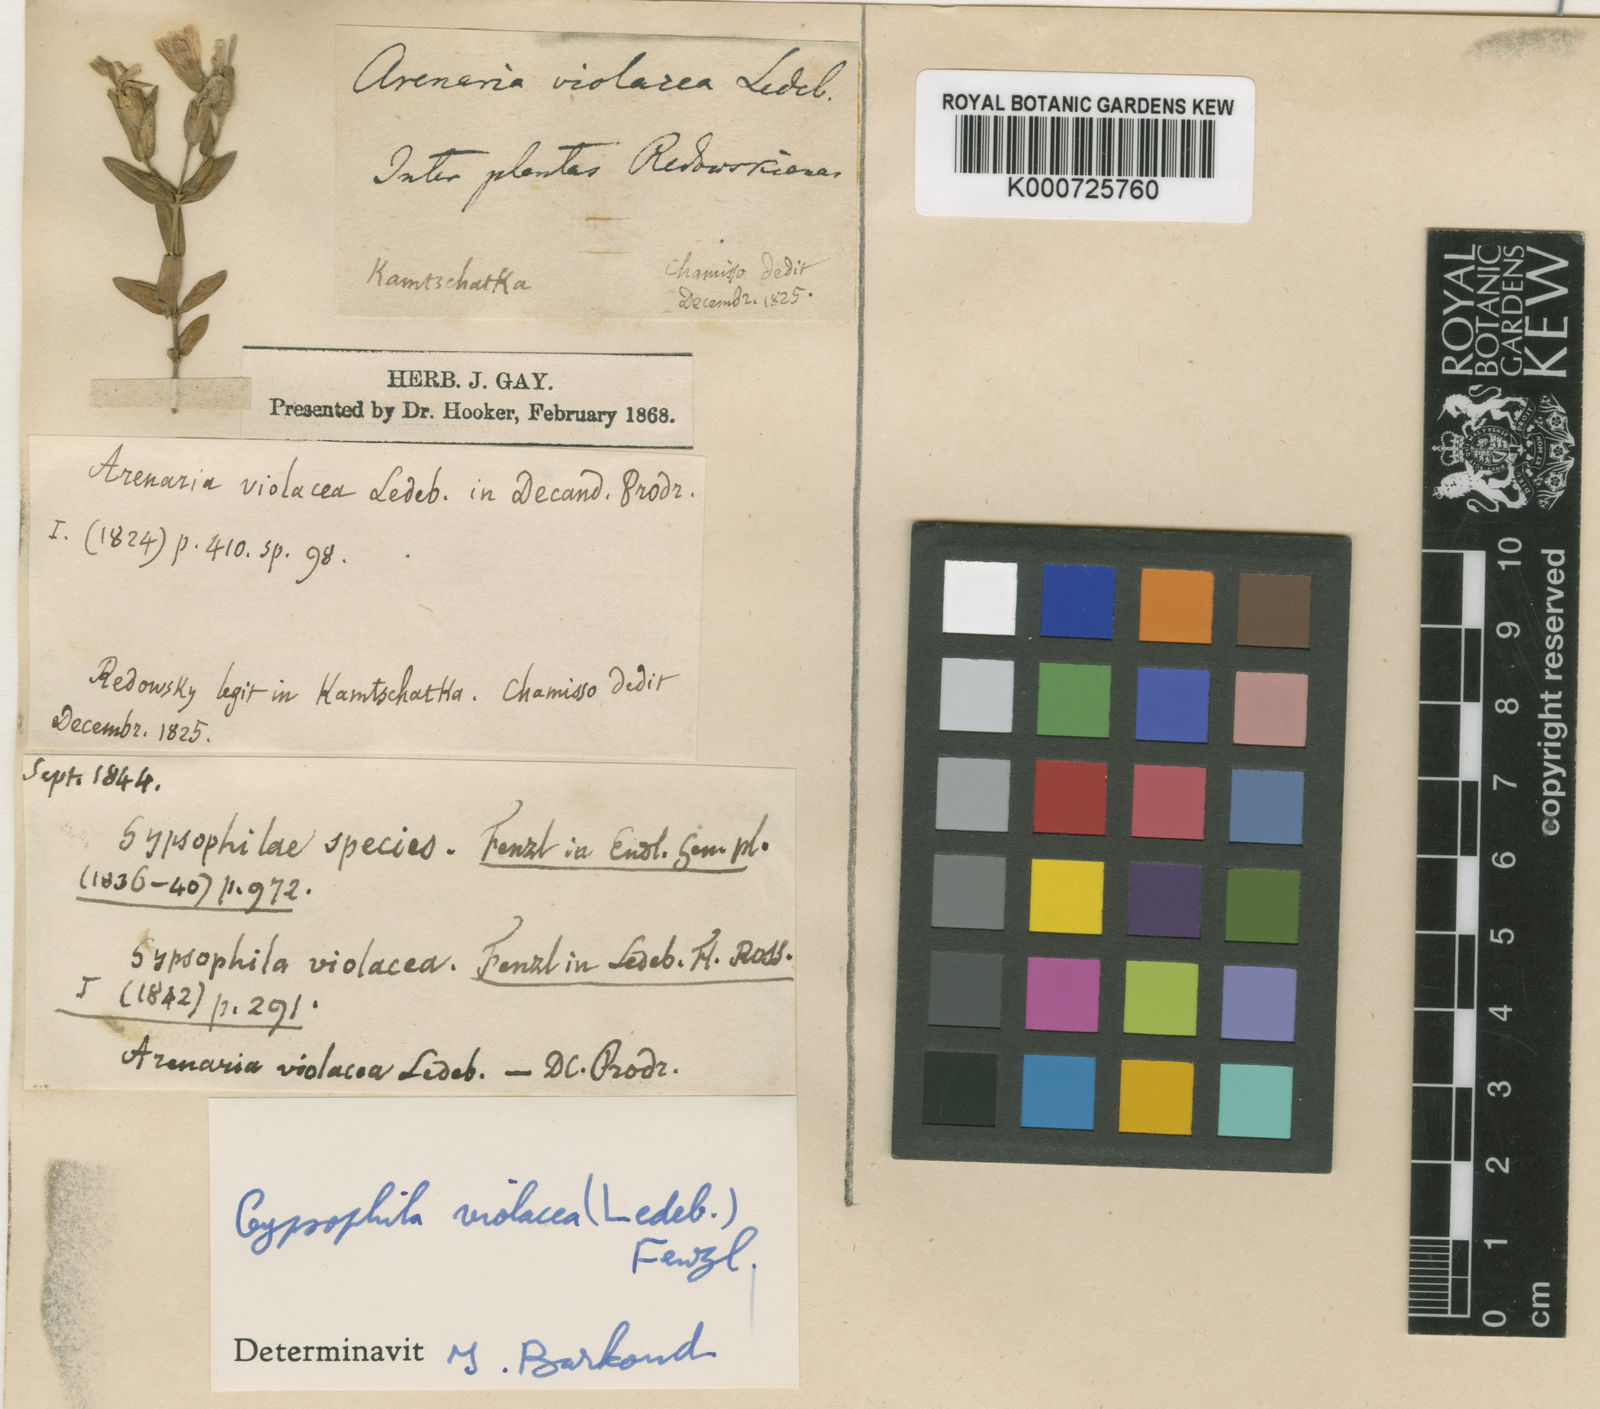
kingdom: Plantae
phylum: Tracheophyta
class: Magnoliopsida
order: Caryophyllales
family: Caryophyllaceae
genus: Heterochroa
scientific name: Heterochroa violacea
